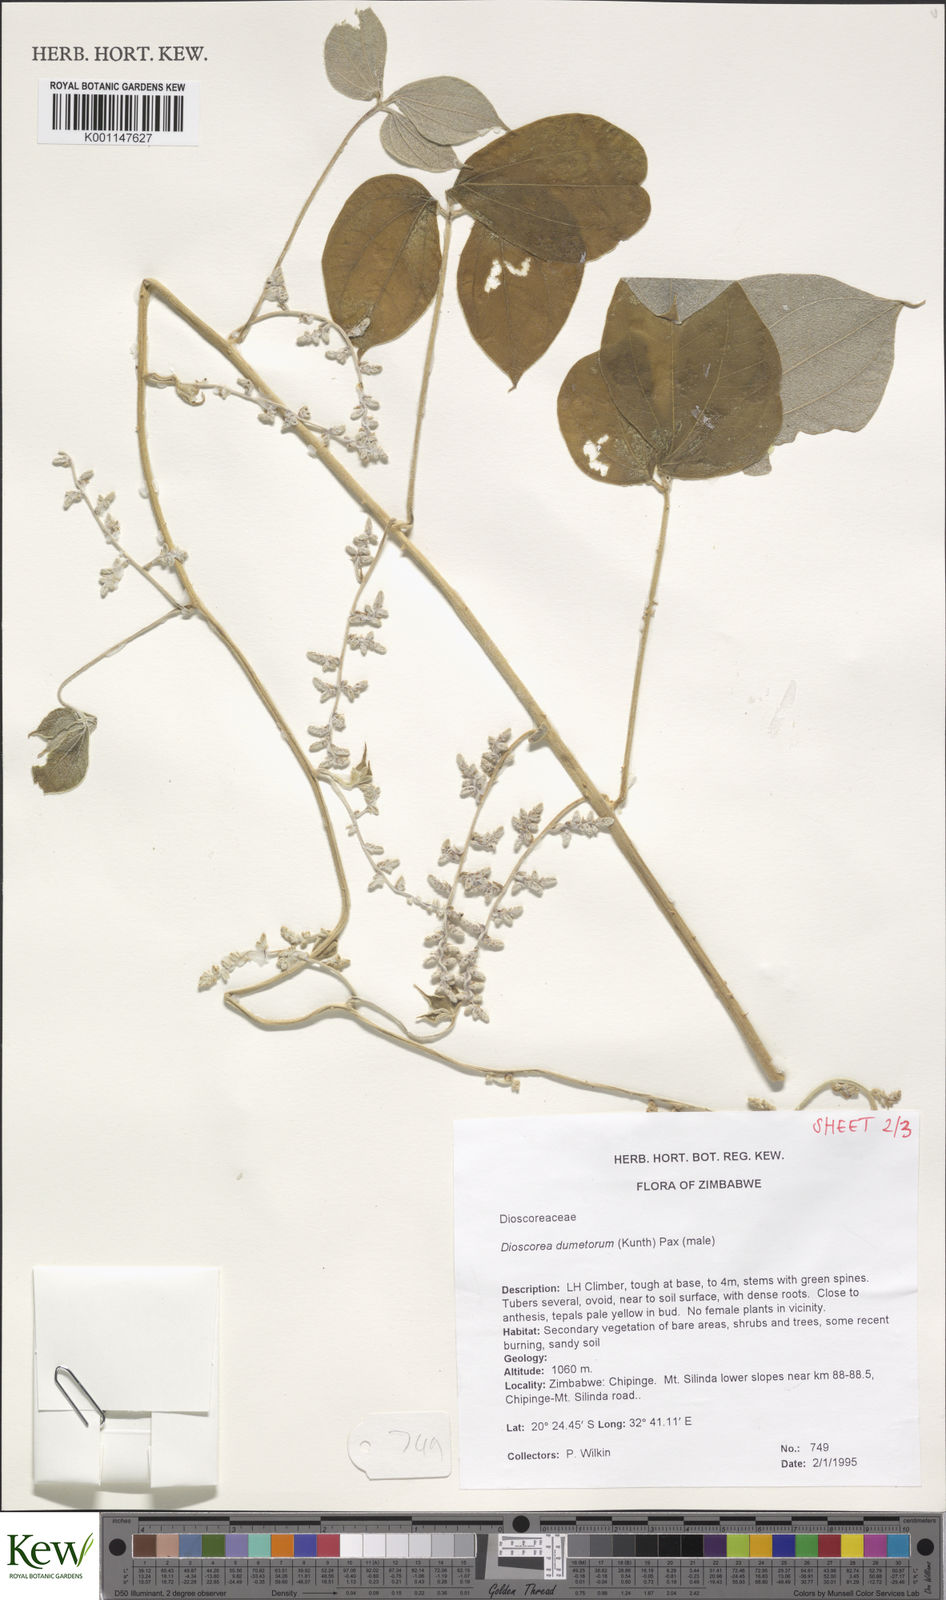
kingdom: Plantae
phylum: Tracheophyta
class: Liliopsida
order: Dioscoreales
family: Dioscoreaceae
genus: Dioscorea
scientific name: Dioscorea dumetorum
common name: African bitter yam
